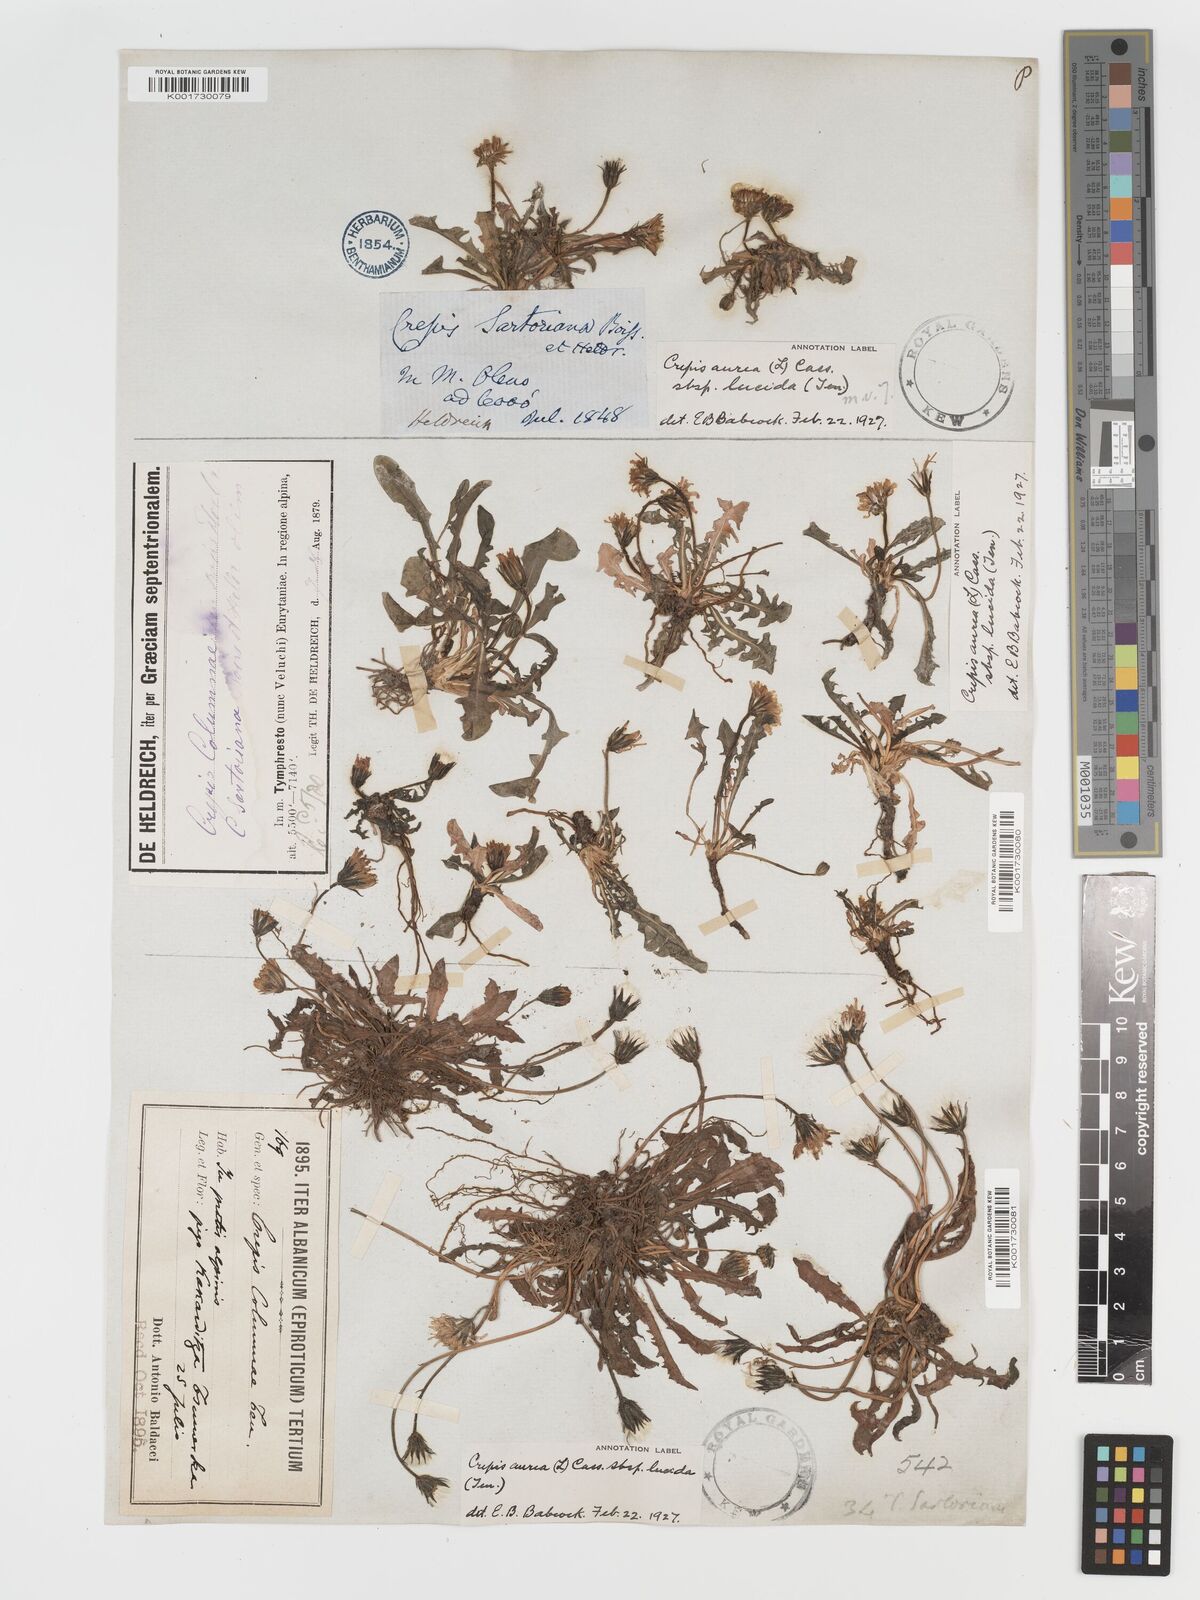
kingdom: Plantae
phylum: Tracheophyta
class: Magnoliopsida
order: Asterales
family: Asteraceae
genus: Crepis
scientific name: Crepis aurea
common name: Golden hawk's-beard
